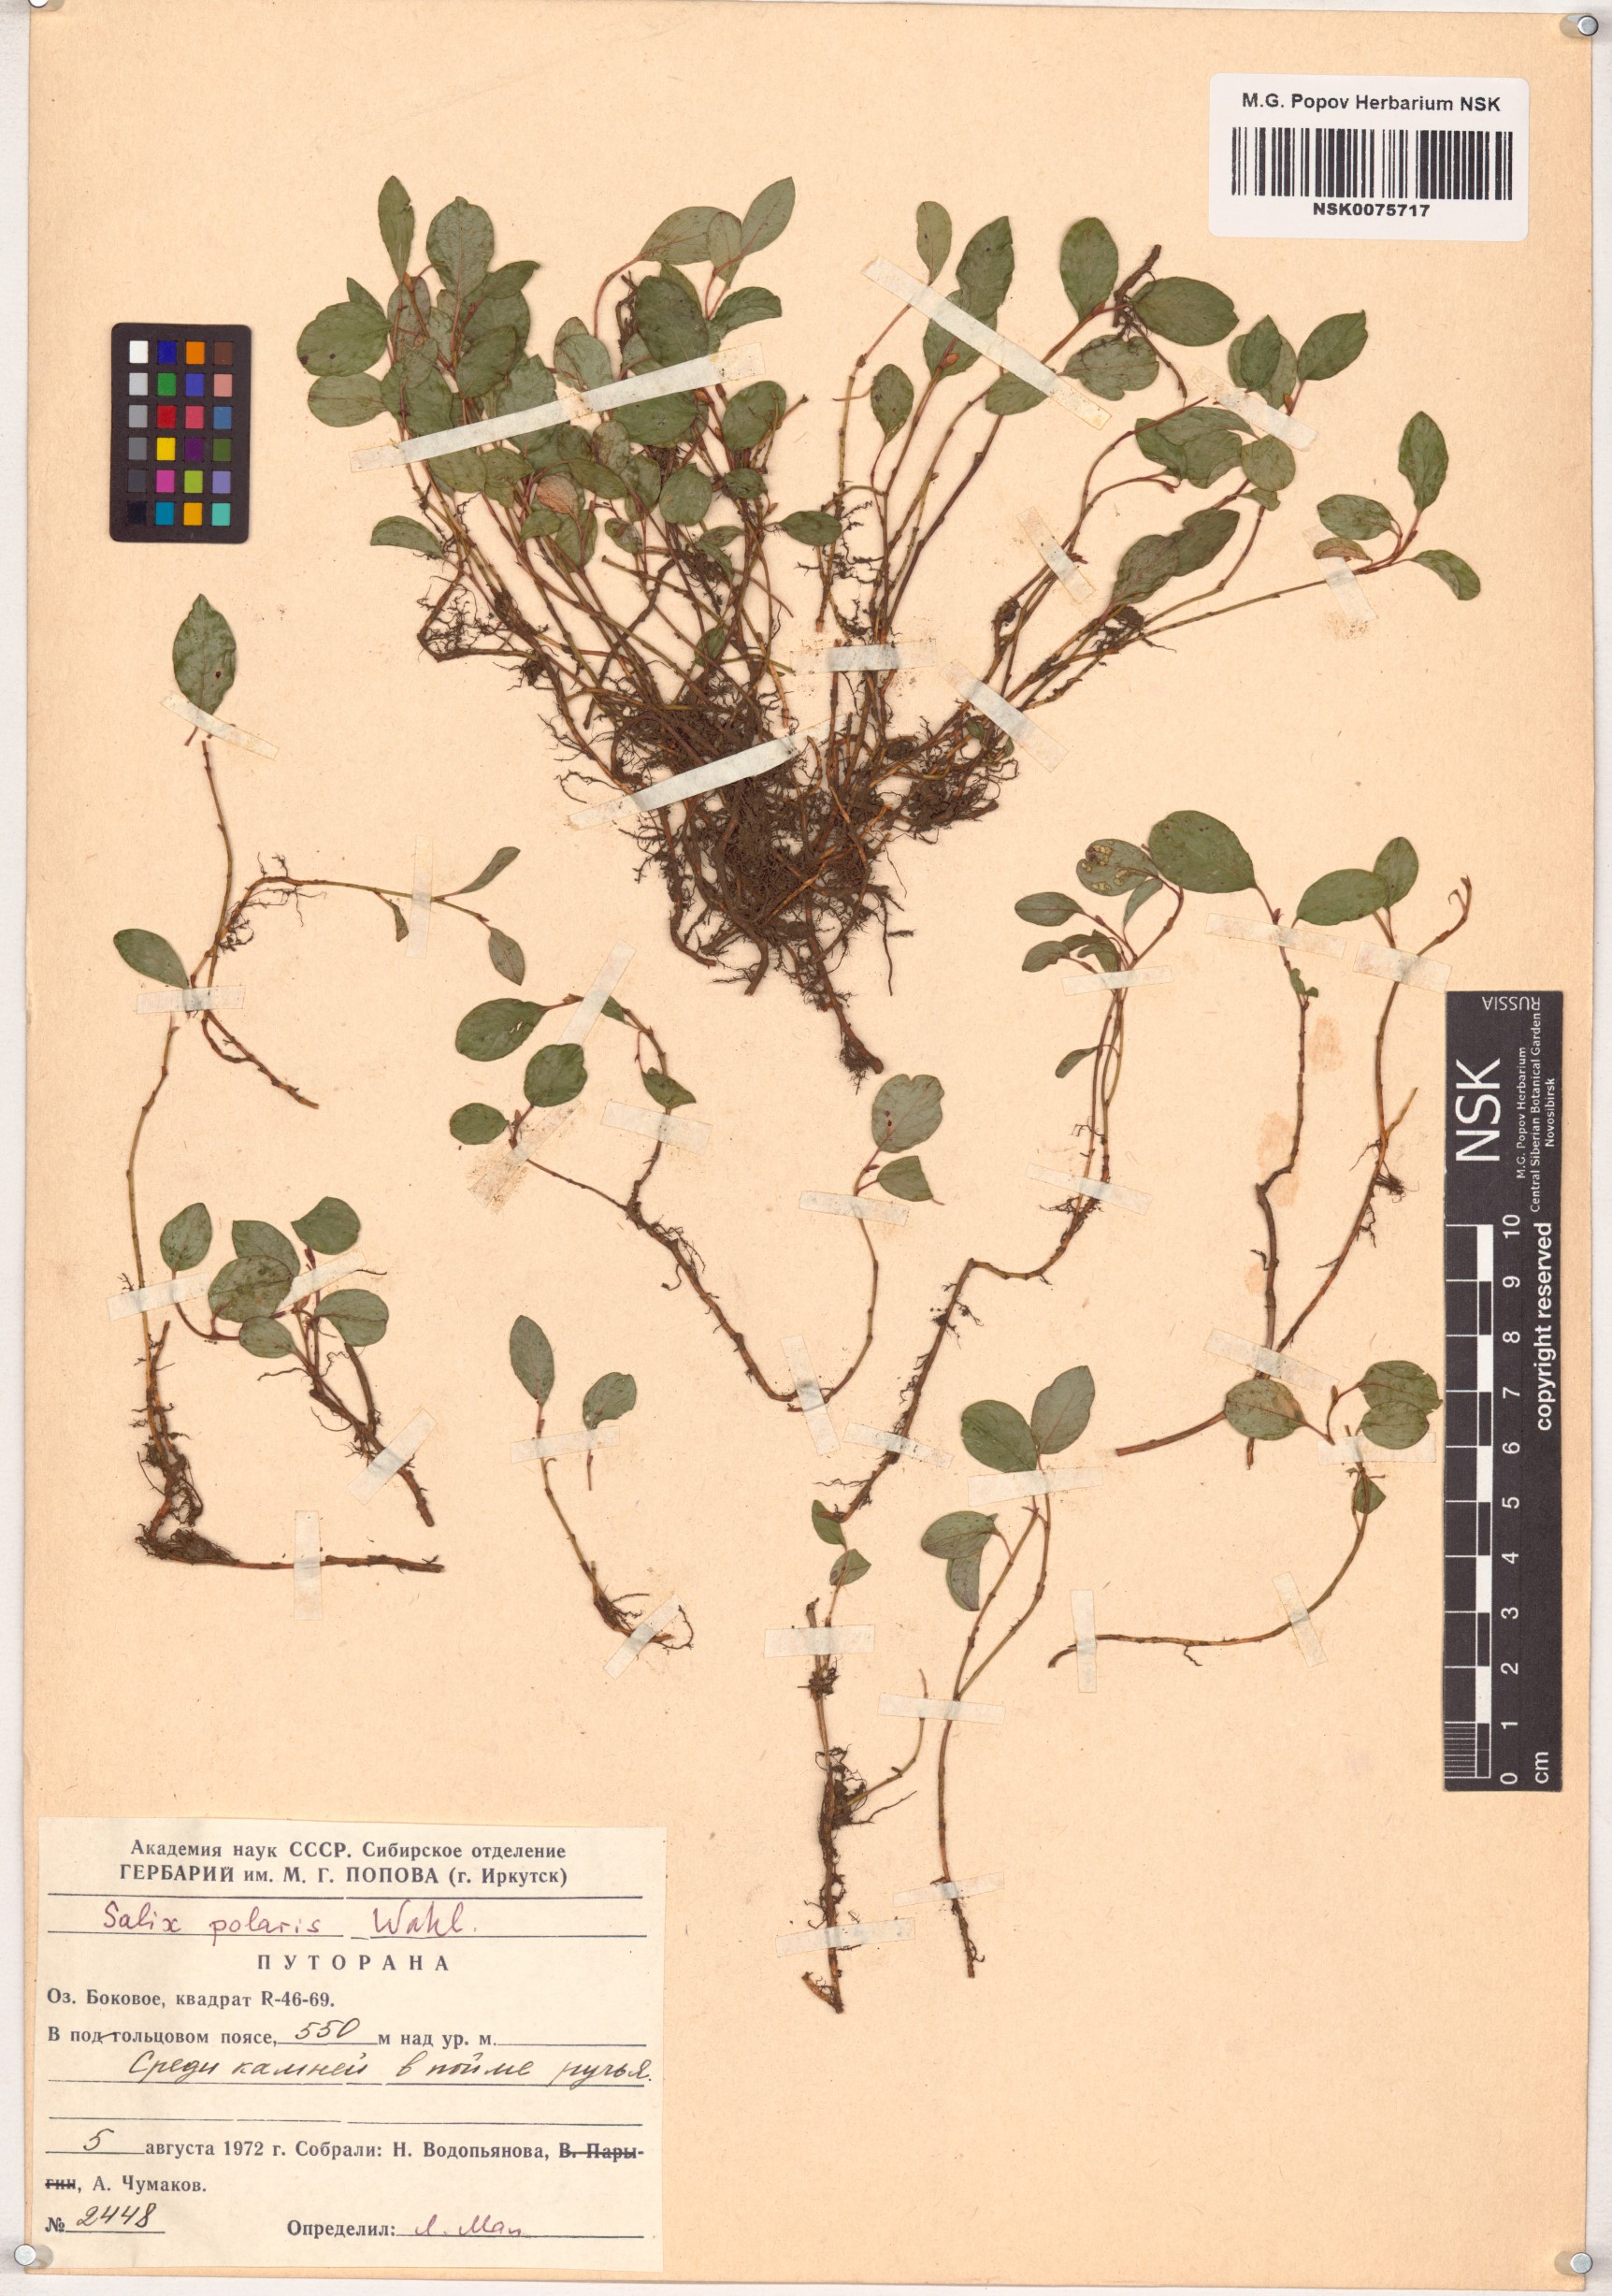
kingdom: Plantae
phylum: Tracheophyta
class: Magnoliopsida
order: Malpighiales
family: Salicaceae
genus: Salix
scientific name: Salix polaris
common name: Polar willow
